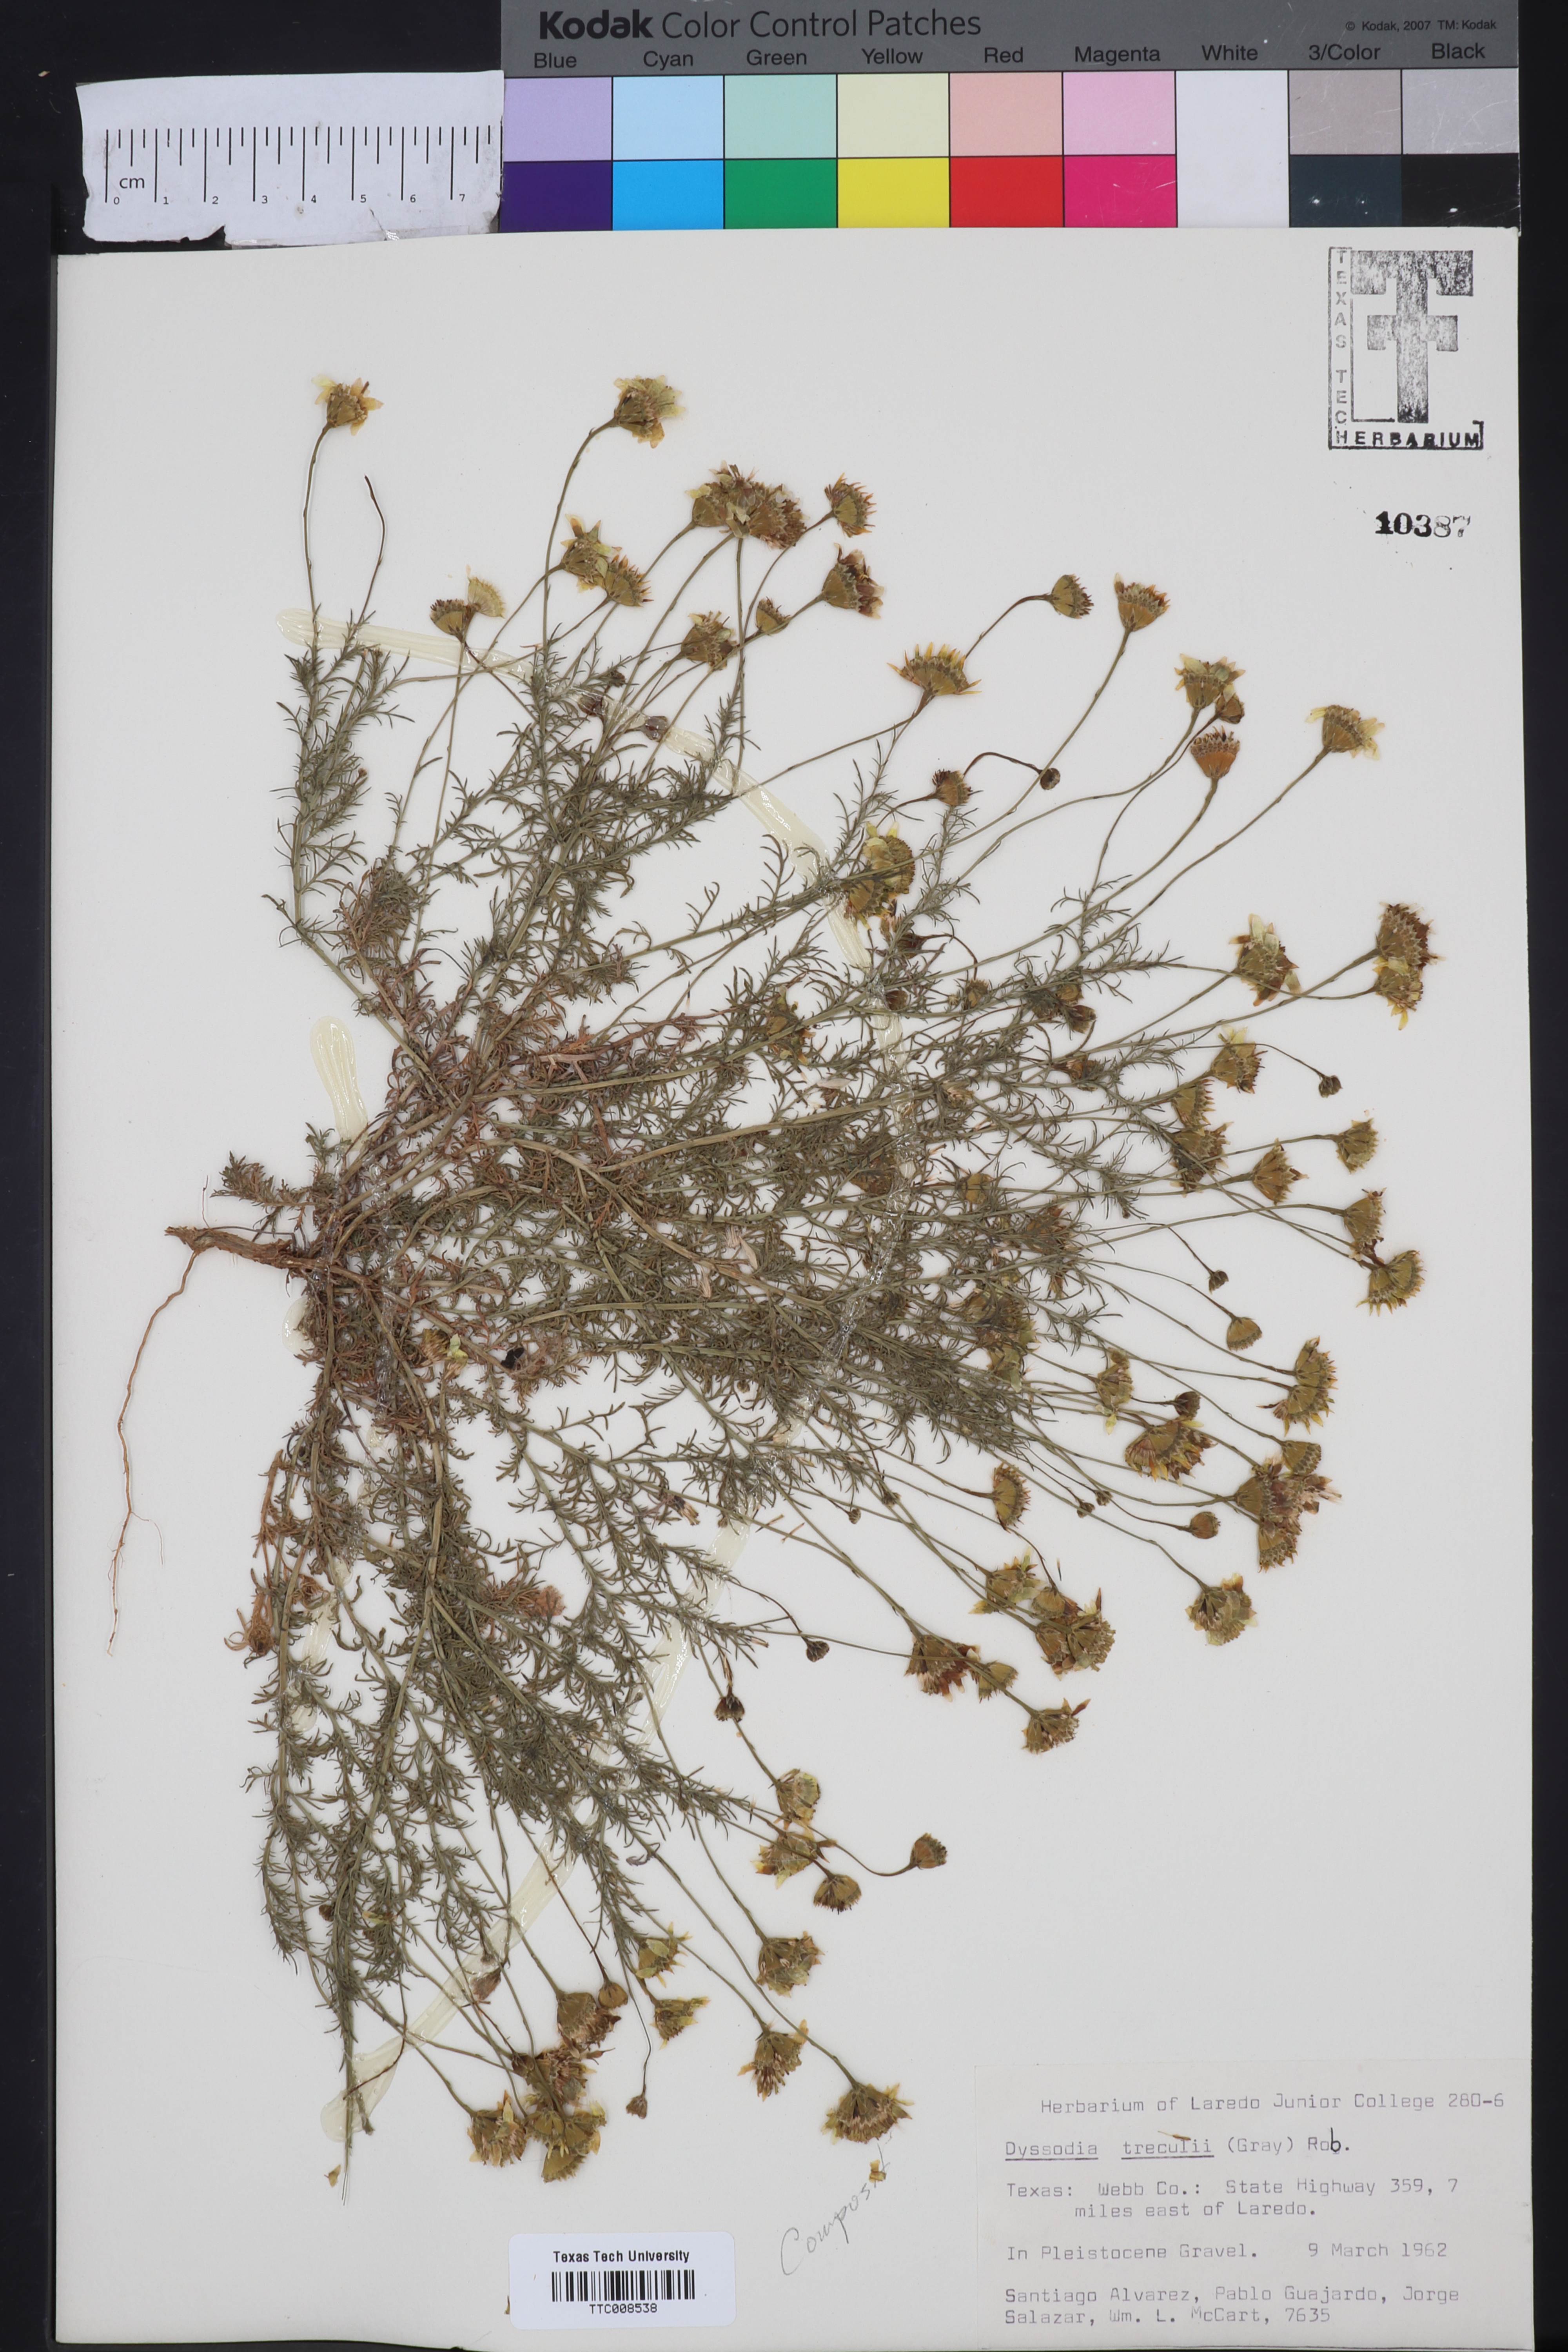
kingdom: Plantae
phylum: Tracheophyta
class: Magnoliopsida
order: Asterales
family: Asteraceae
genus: Thymophylla
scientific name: Thymophylla tenuiloba
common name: Dahlberg's daisy
